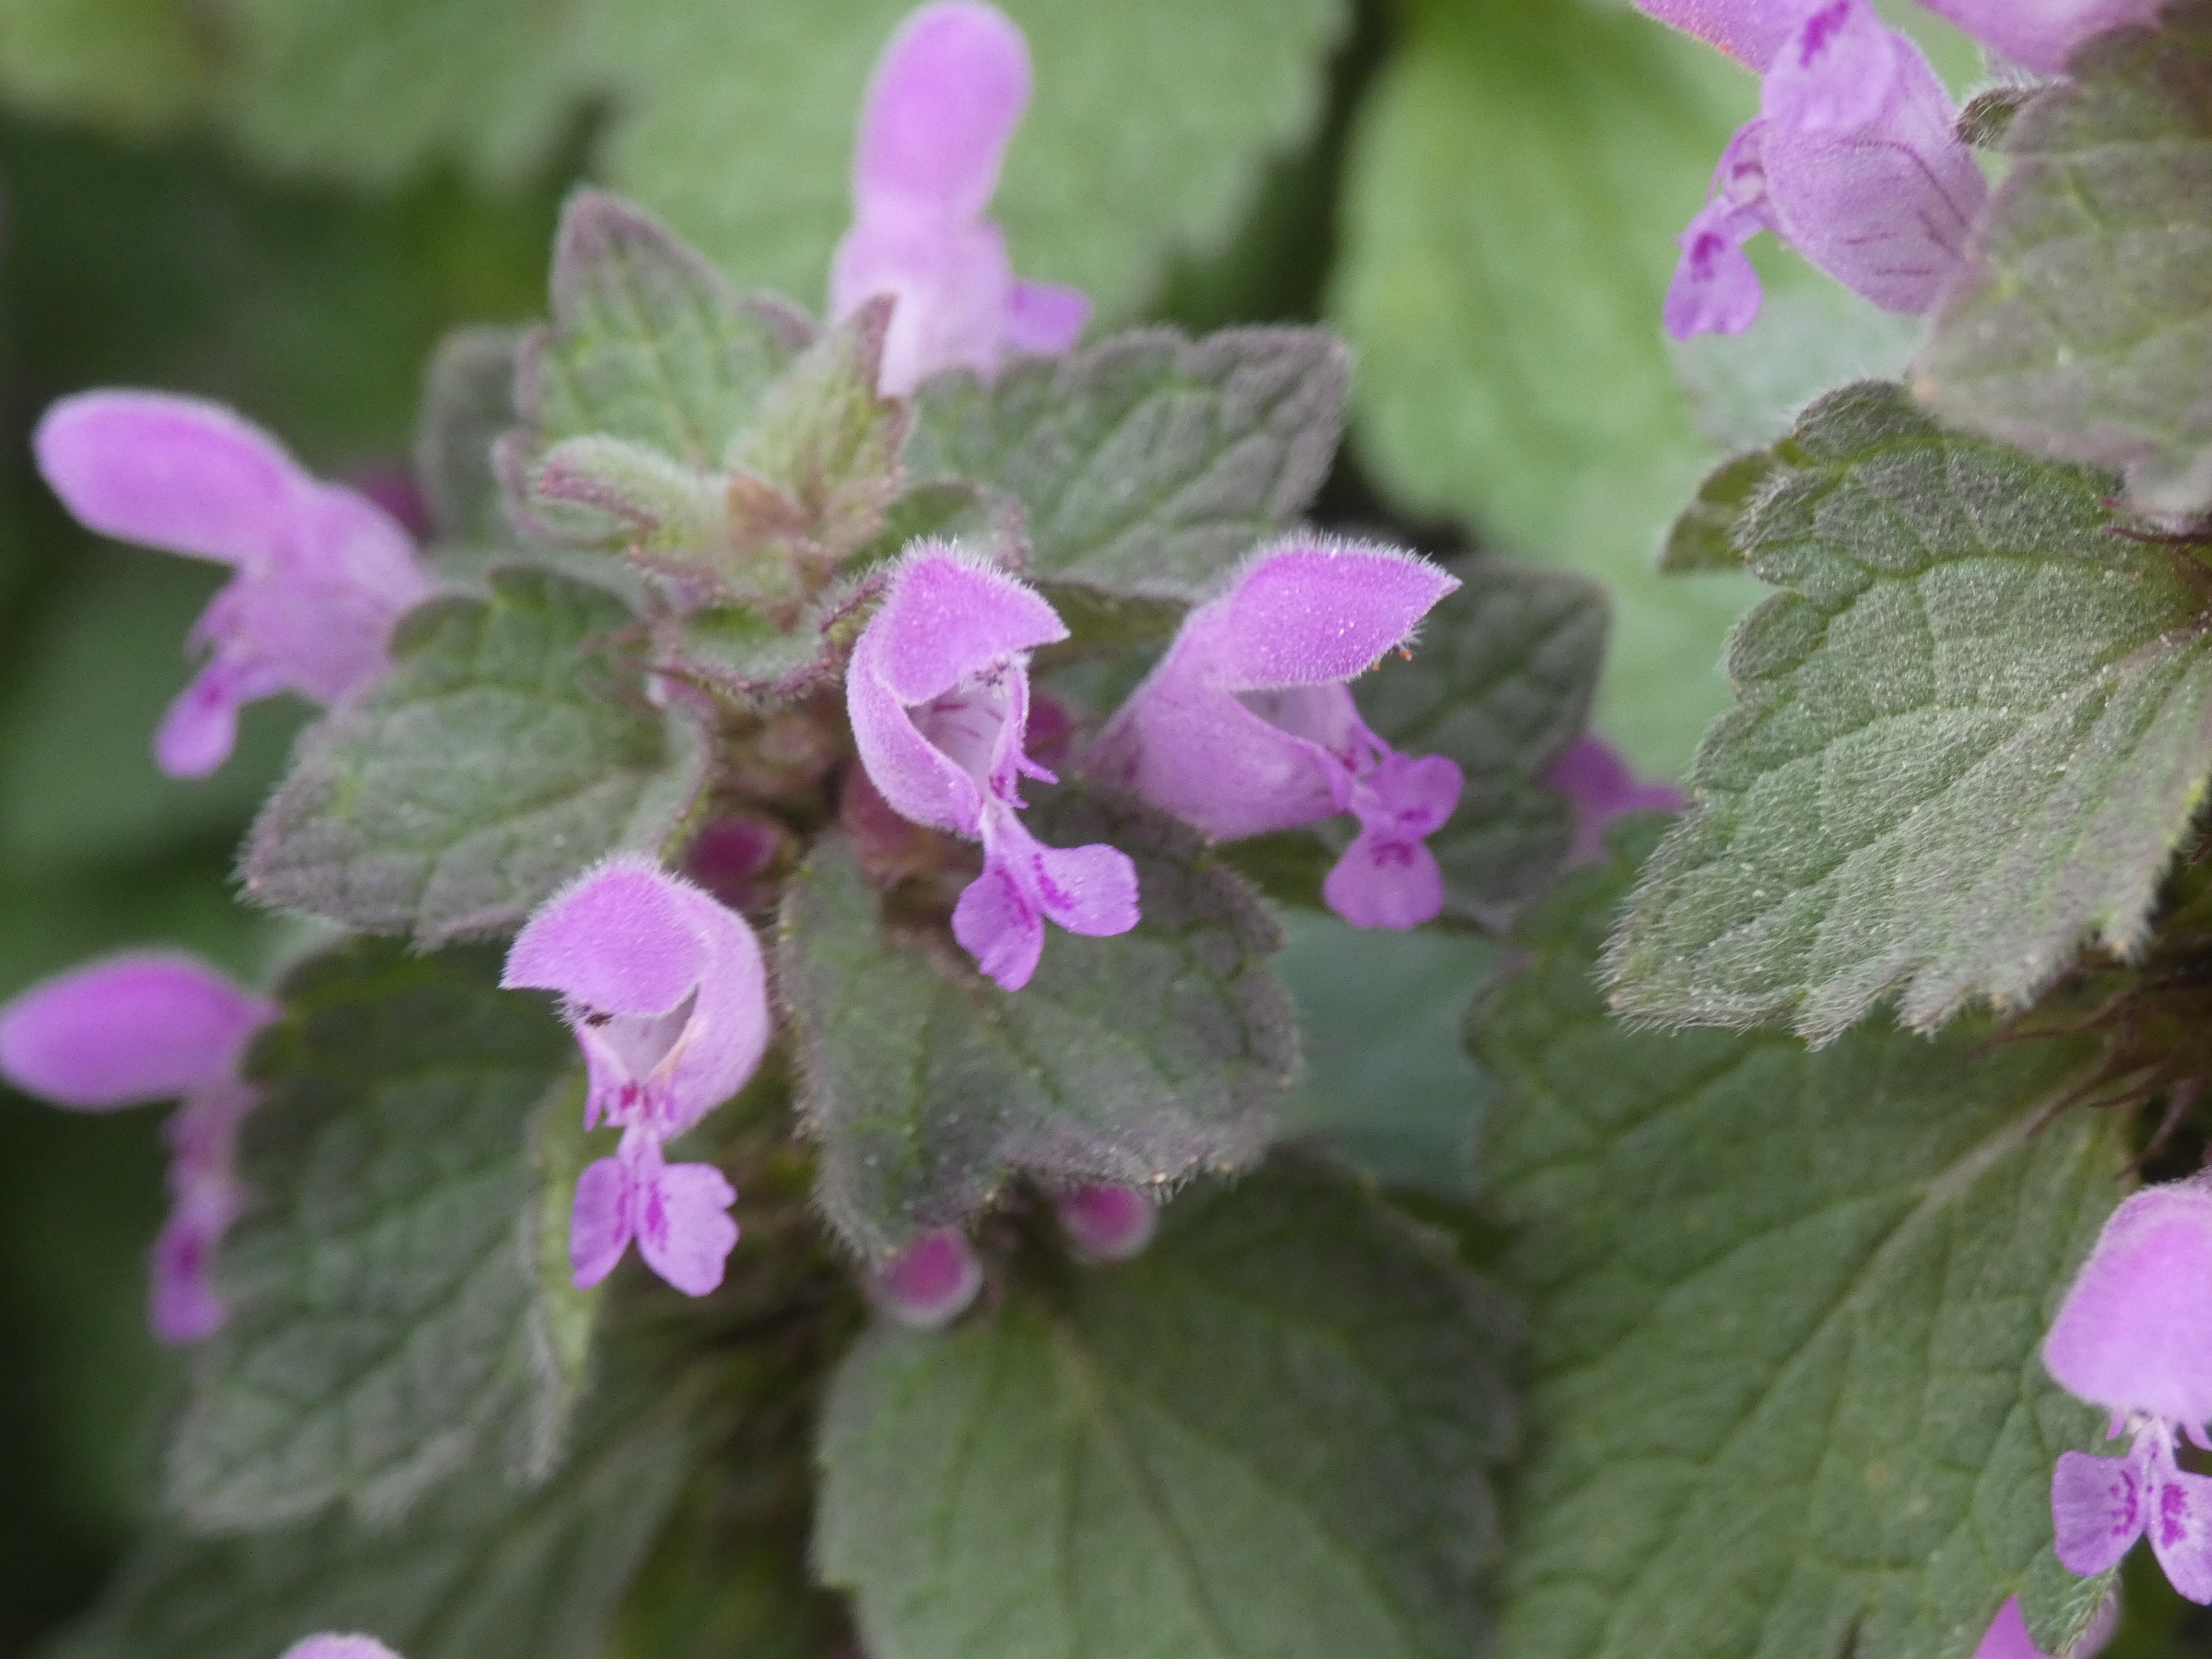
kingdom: Plantae
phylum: Tracheophyta
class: Magnoliopsida
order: Lamiales
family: Lamiaceae
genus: Lamium
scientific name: Lamium purpureum
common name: Rød tvetand
